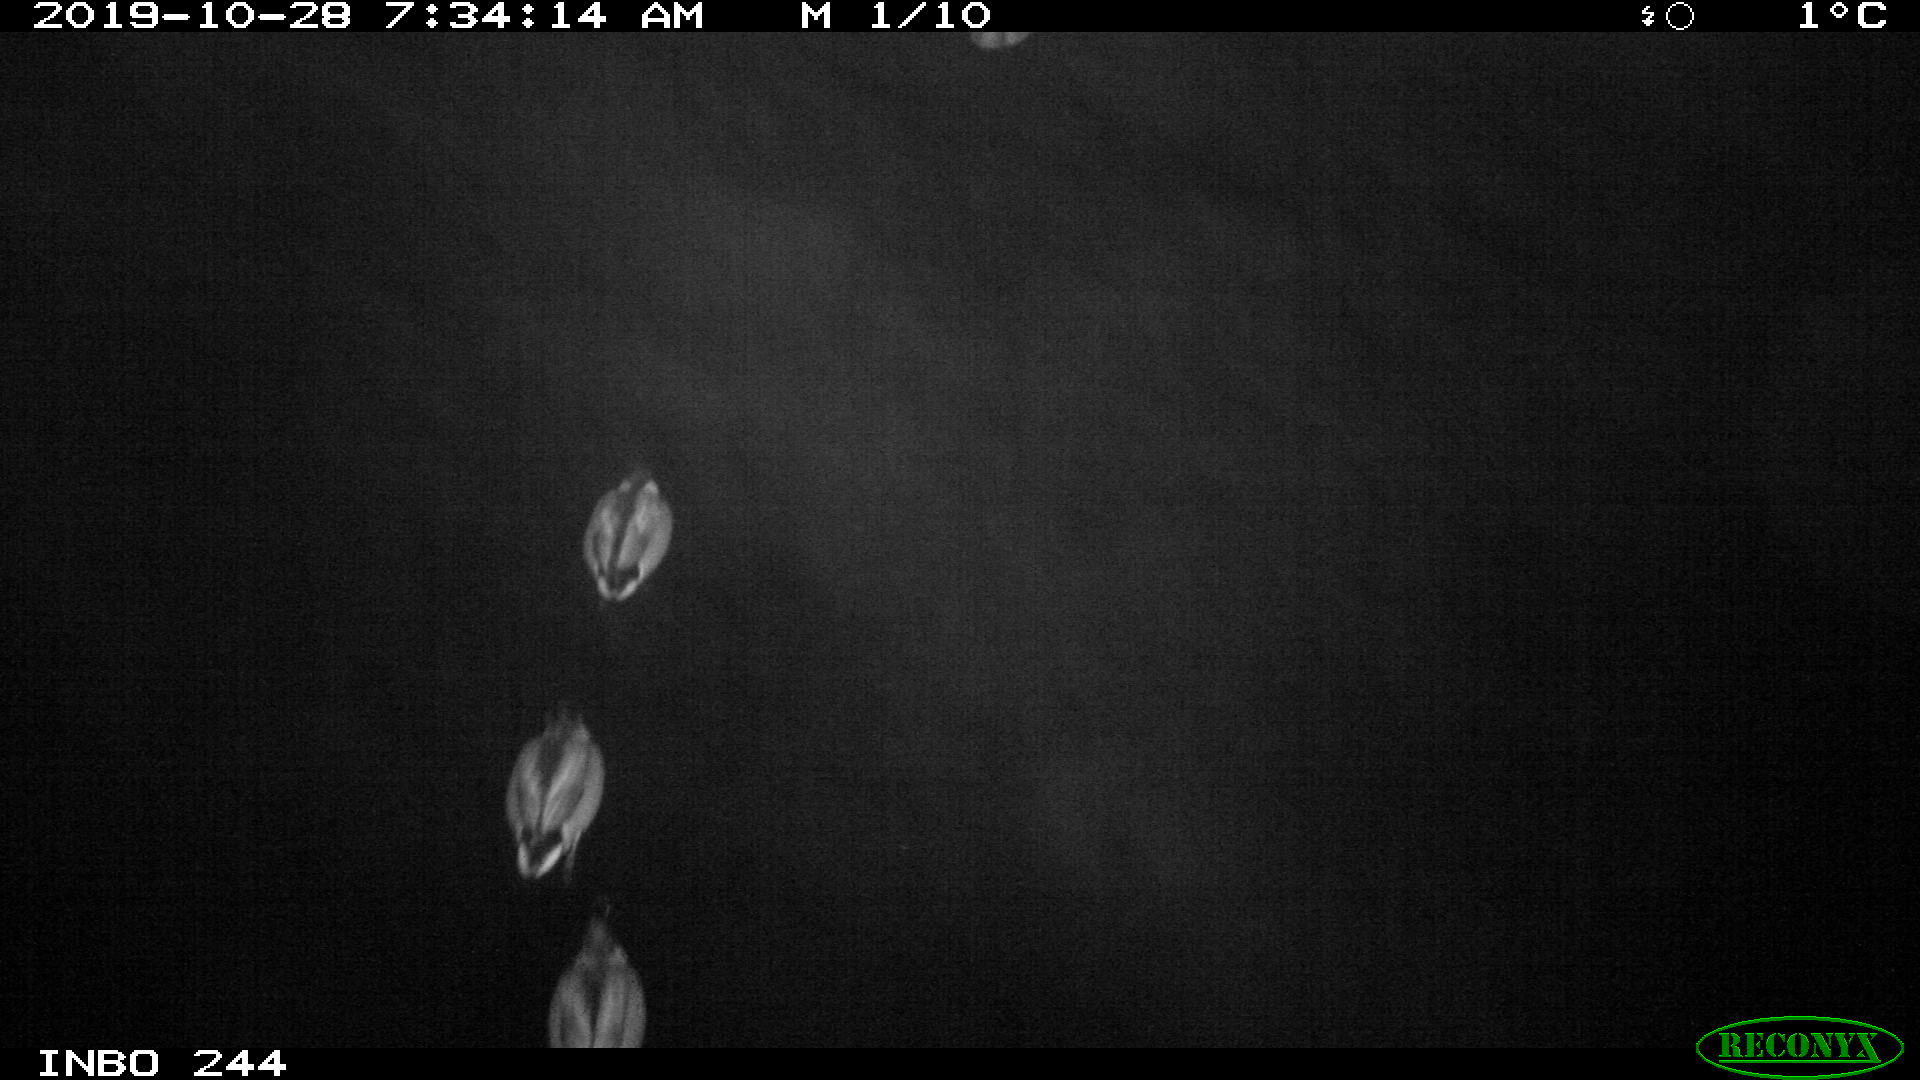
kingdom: Animalia
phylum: Chordata
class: Aves
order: Anseriformes
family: Anatidae
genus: Anas
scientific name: Anas platyrhynchos
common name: Mallard
